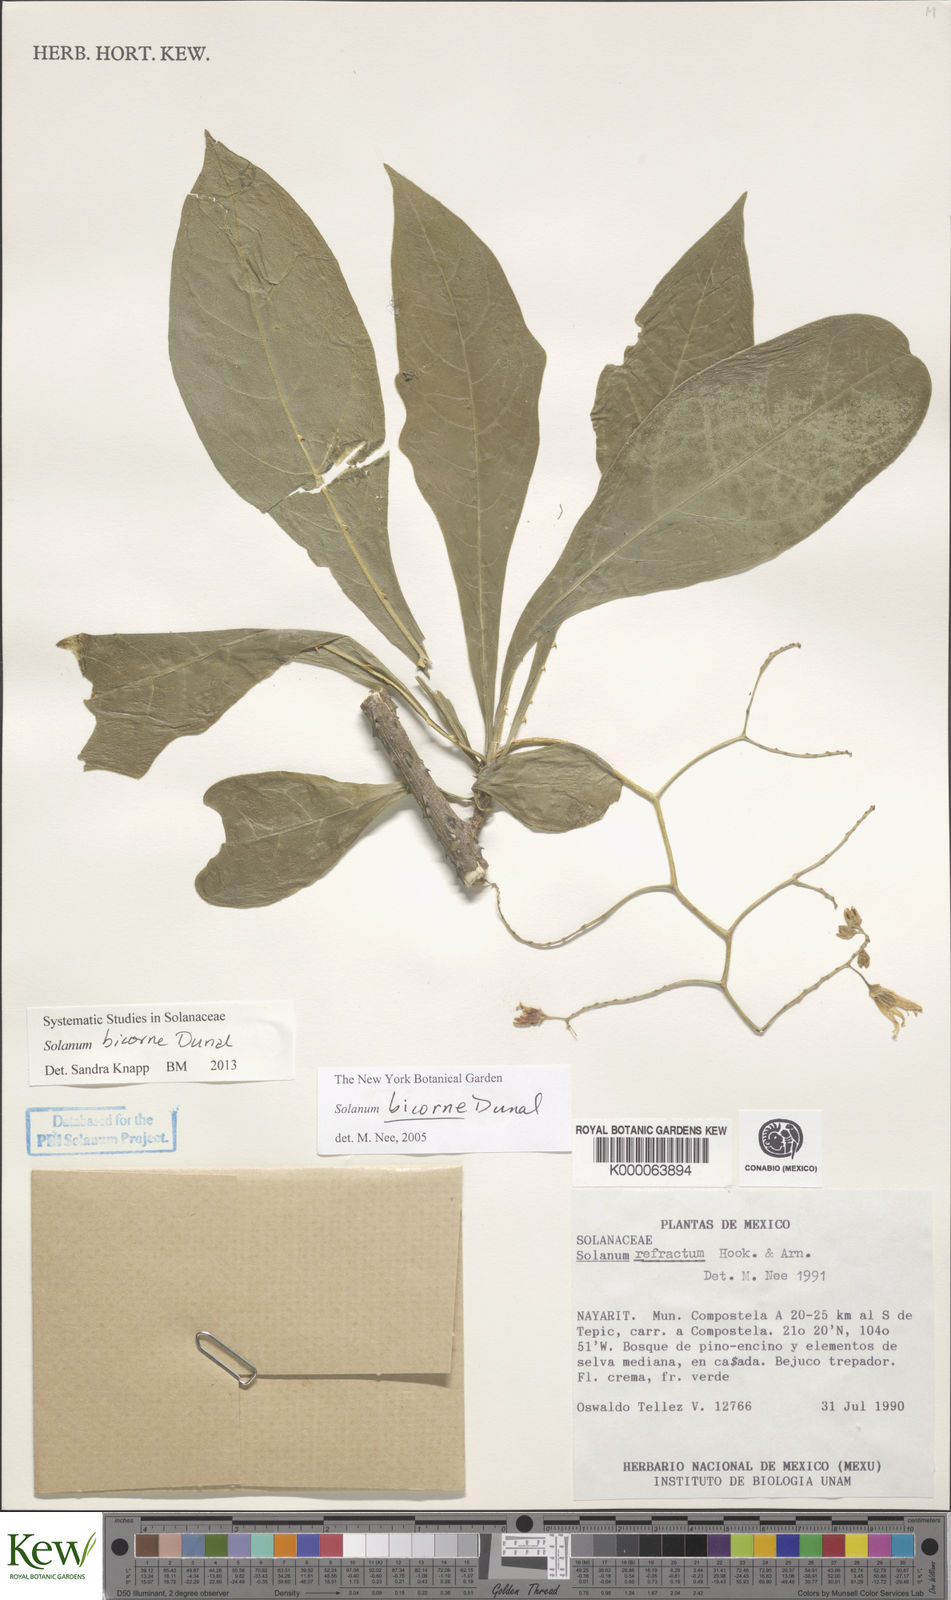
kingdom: Plantae
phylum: Tracheophyta
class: Magnoliopsida
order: Solanales
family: Solanaceae
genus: Solanum
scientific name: Solanum refractum
